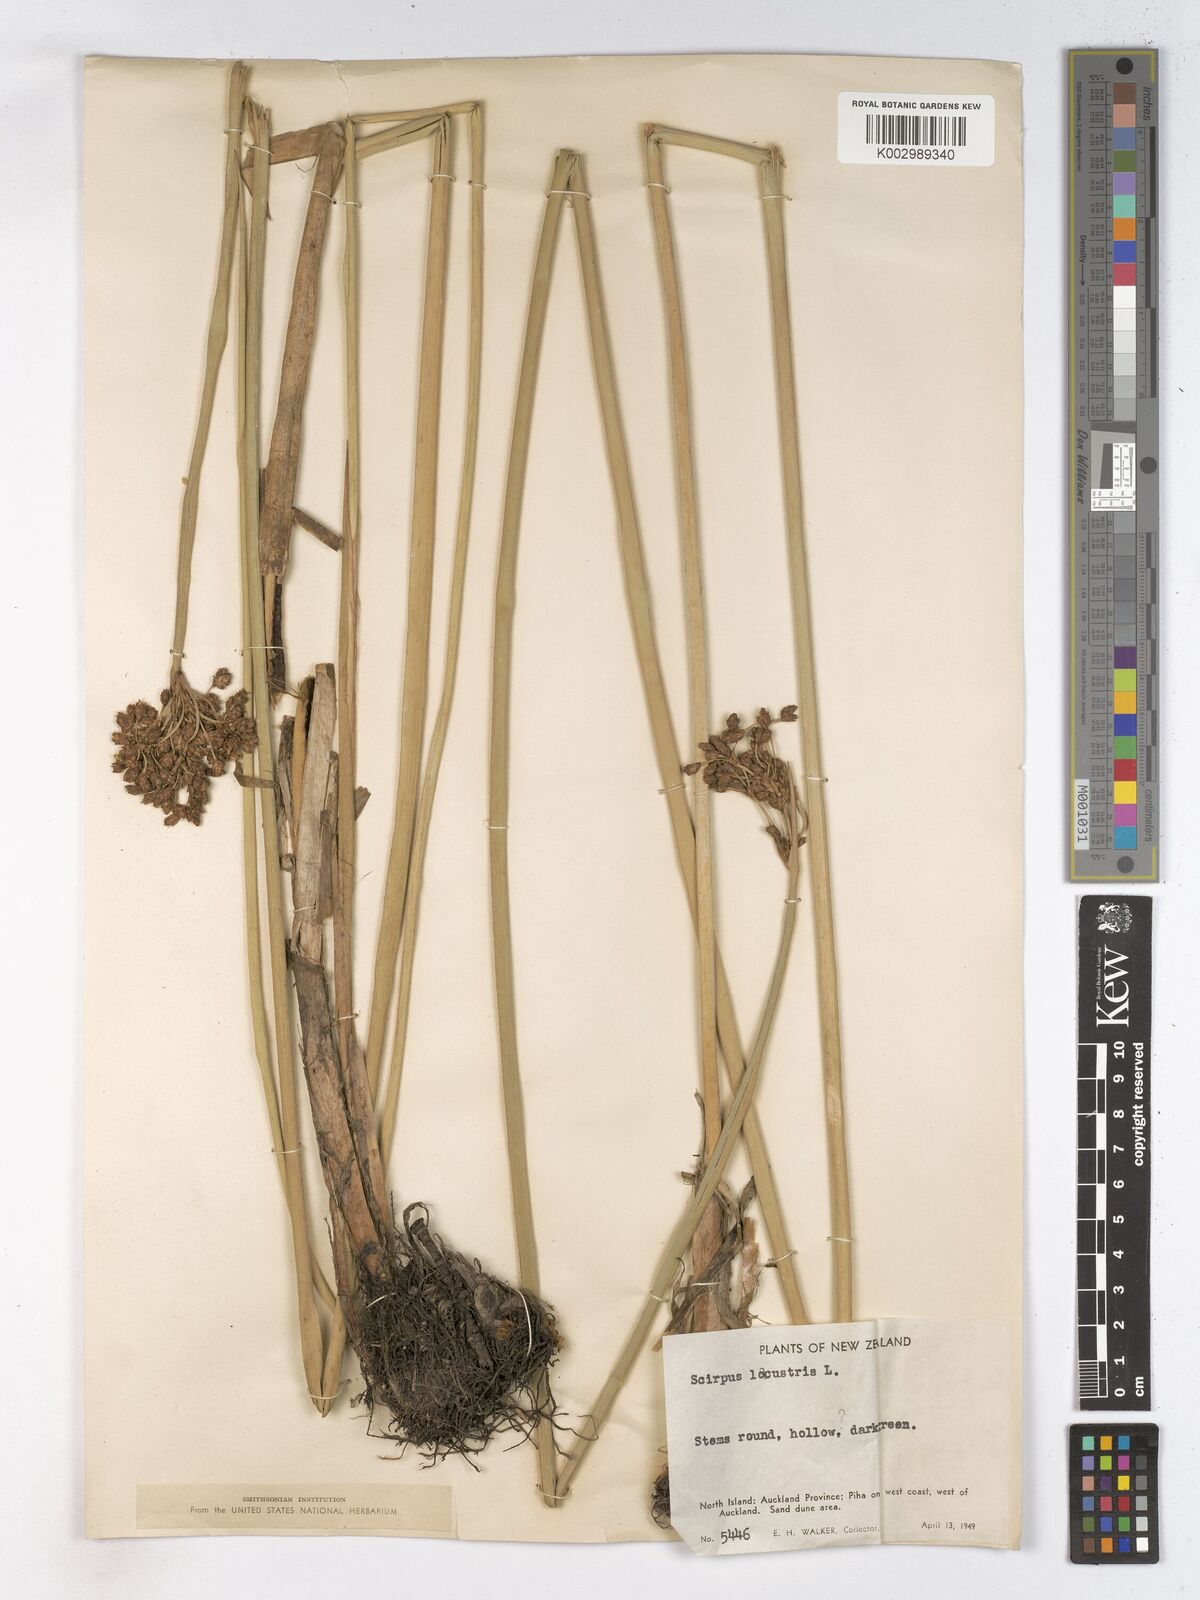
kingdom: Plantae
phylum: Tracheophyta
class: Liliopsida
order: Poales
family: Cyperaceae
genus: Schoenoplectus
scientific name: Schoenoplectus lacustris
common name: Common club-rush
